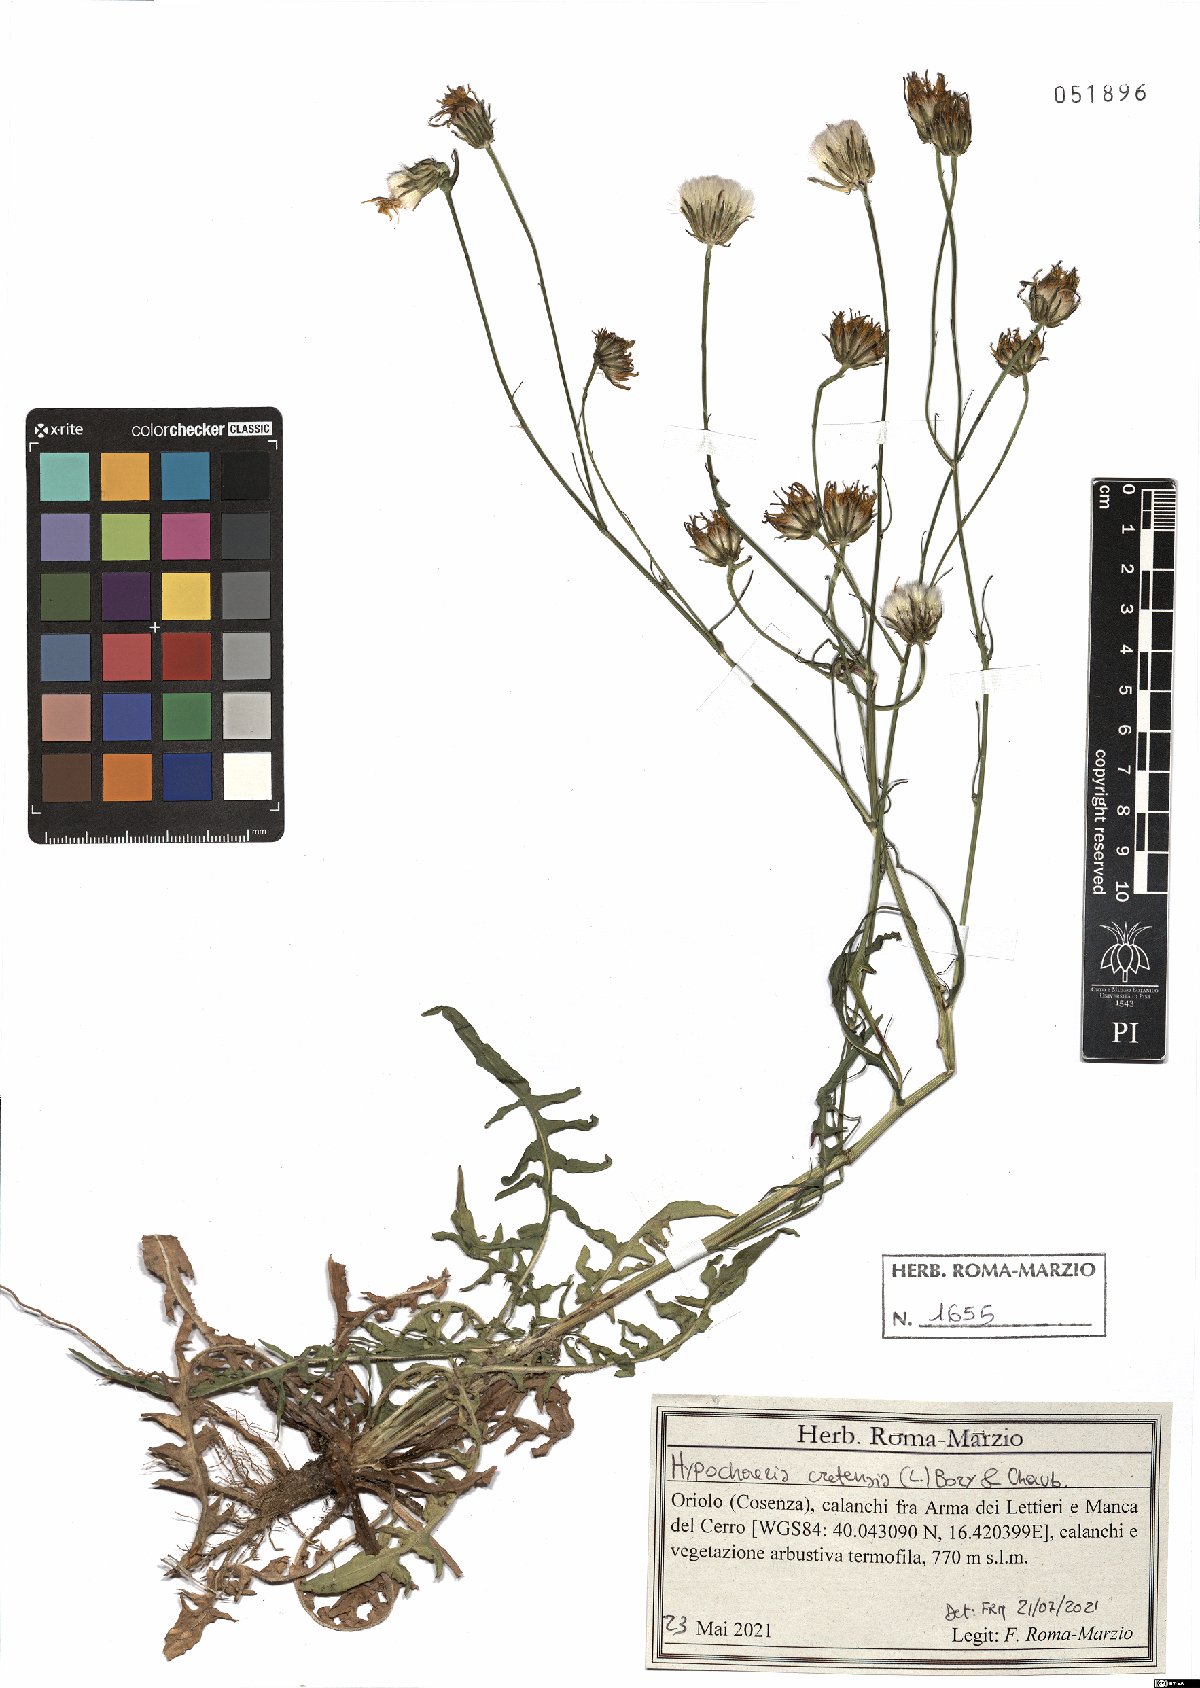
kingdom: Plantae
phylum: Tracheophyta
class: Magnoliopsida
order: Asterales
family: Asteraceae
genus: Hypochaeris
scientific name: Hypochaeris cretensis
